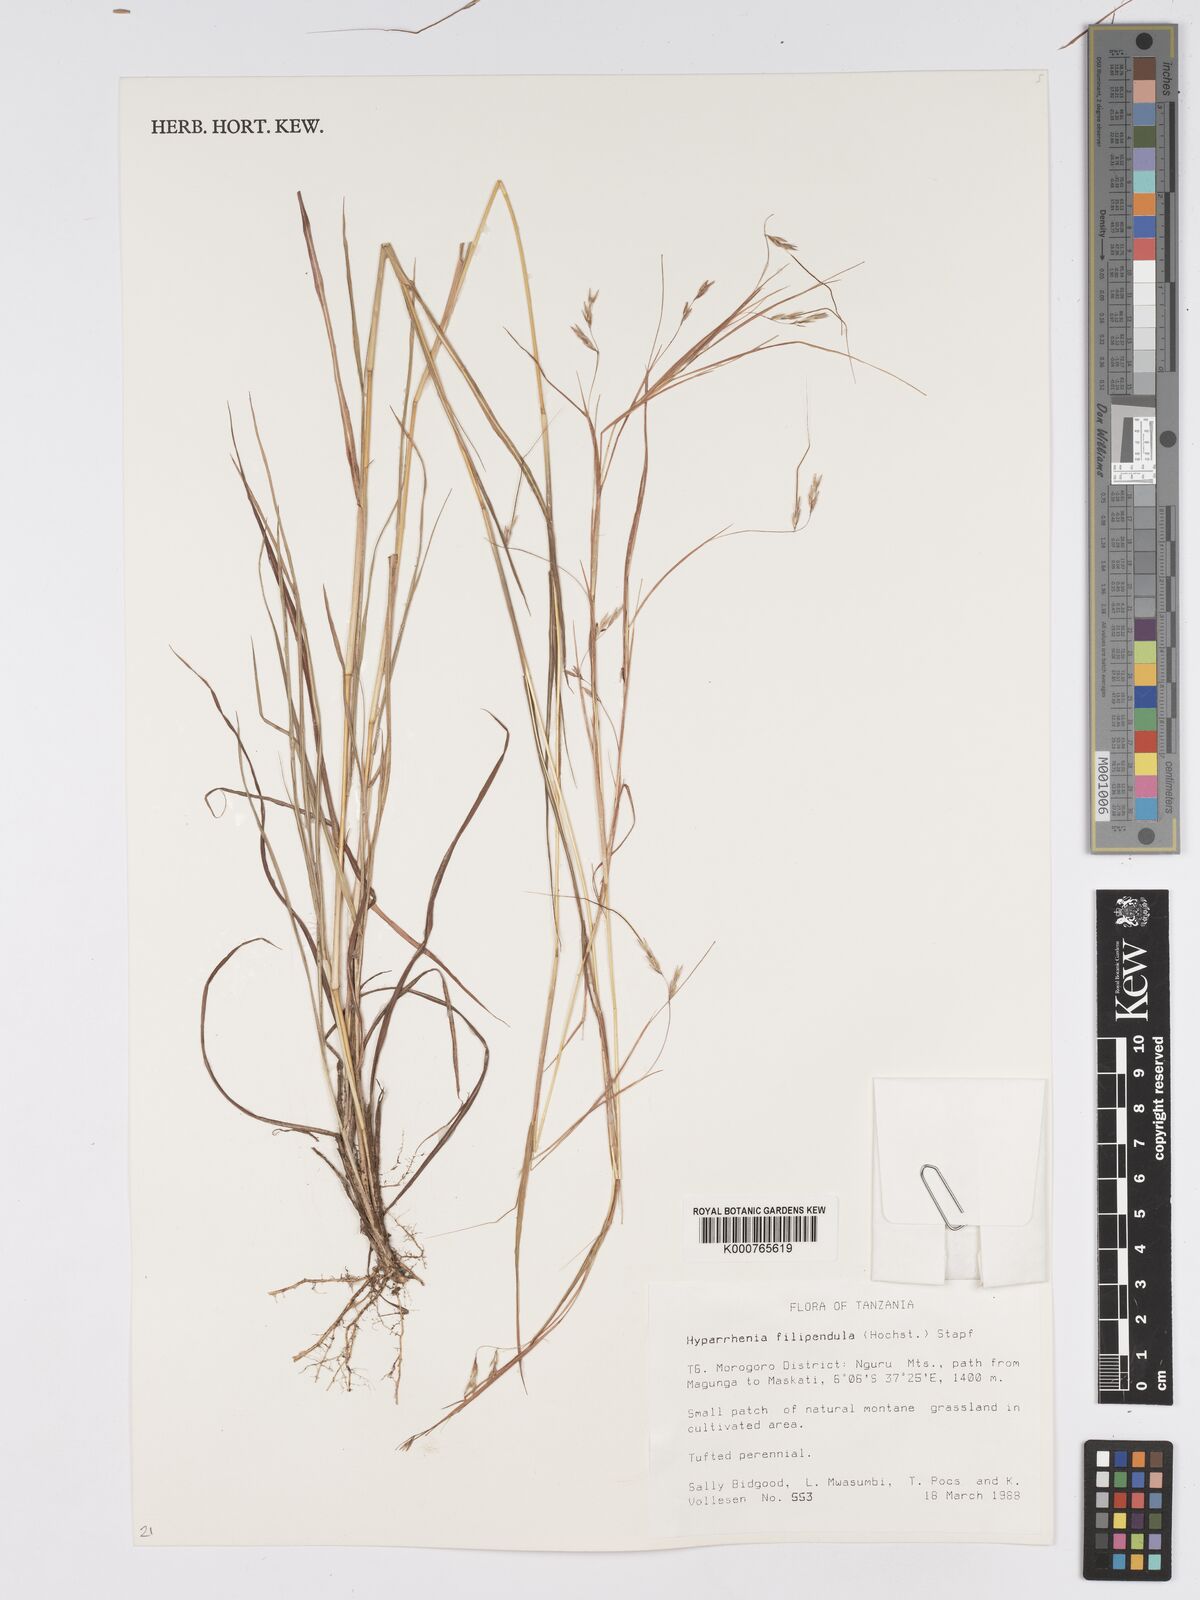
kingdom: Plantae
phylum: Tracheophyta
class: Liliopsida
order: Poales
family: Poaceae
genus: Hyparrhenia
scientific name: Hyparrhenia filipendula
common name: Tambookie grass
